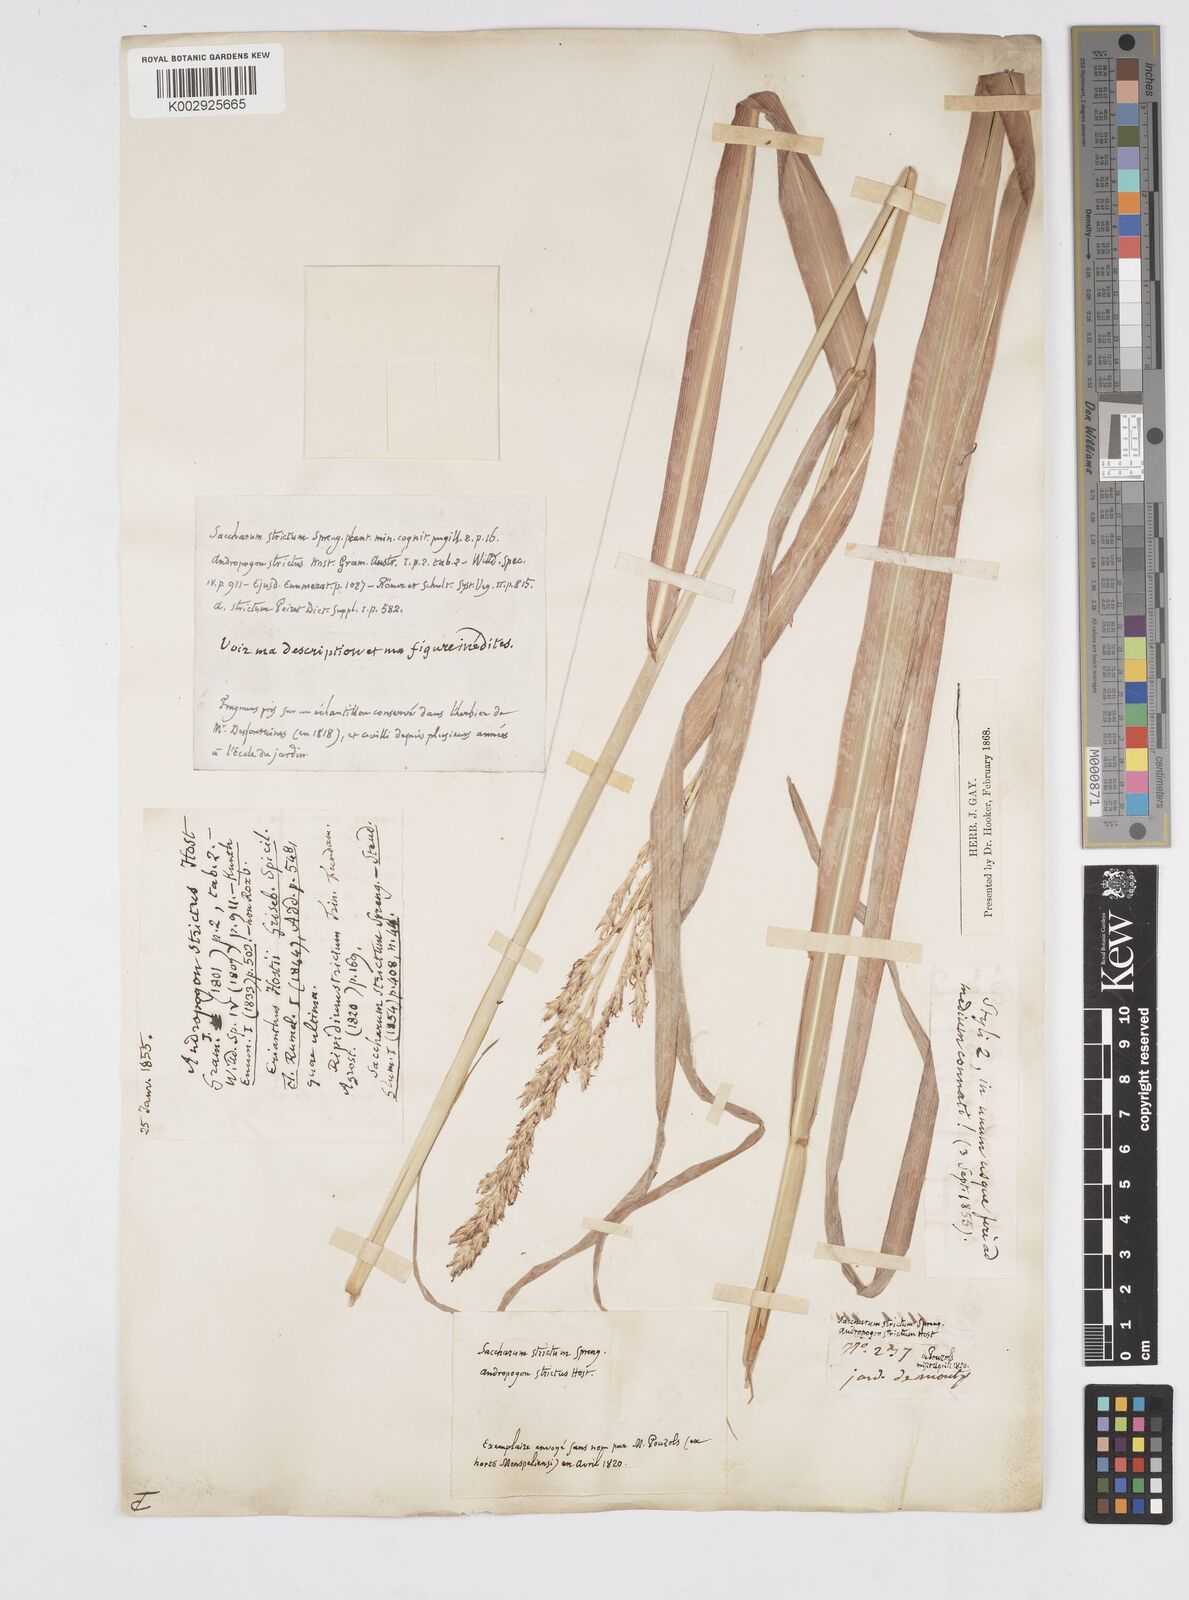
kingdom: Plantae
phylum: Tracheophyta
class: Liliopsida
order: Poales
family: Poaceae
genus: Tripidium
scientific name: Tripidium strictum
